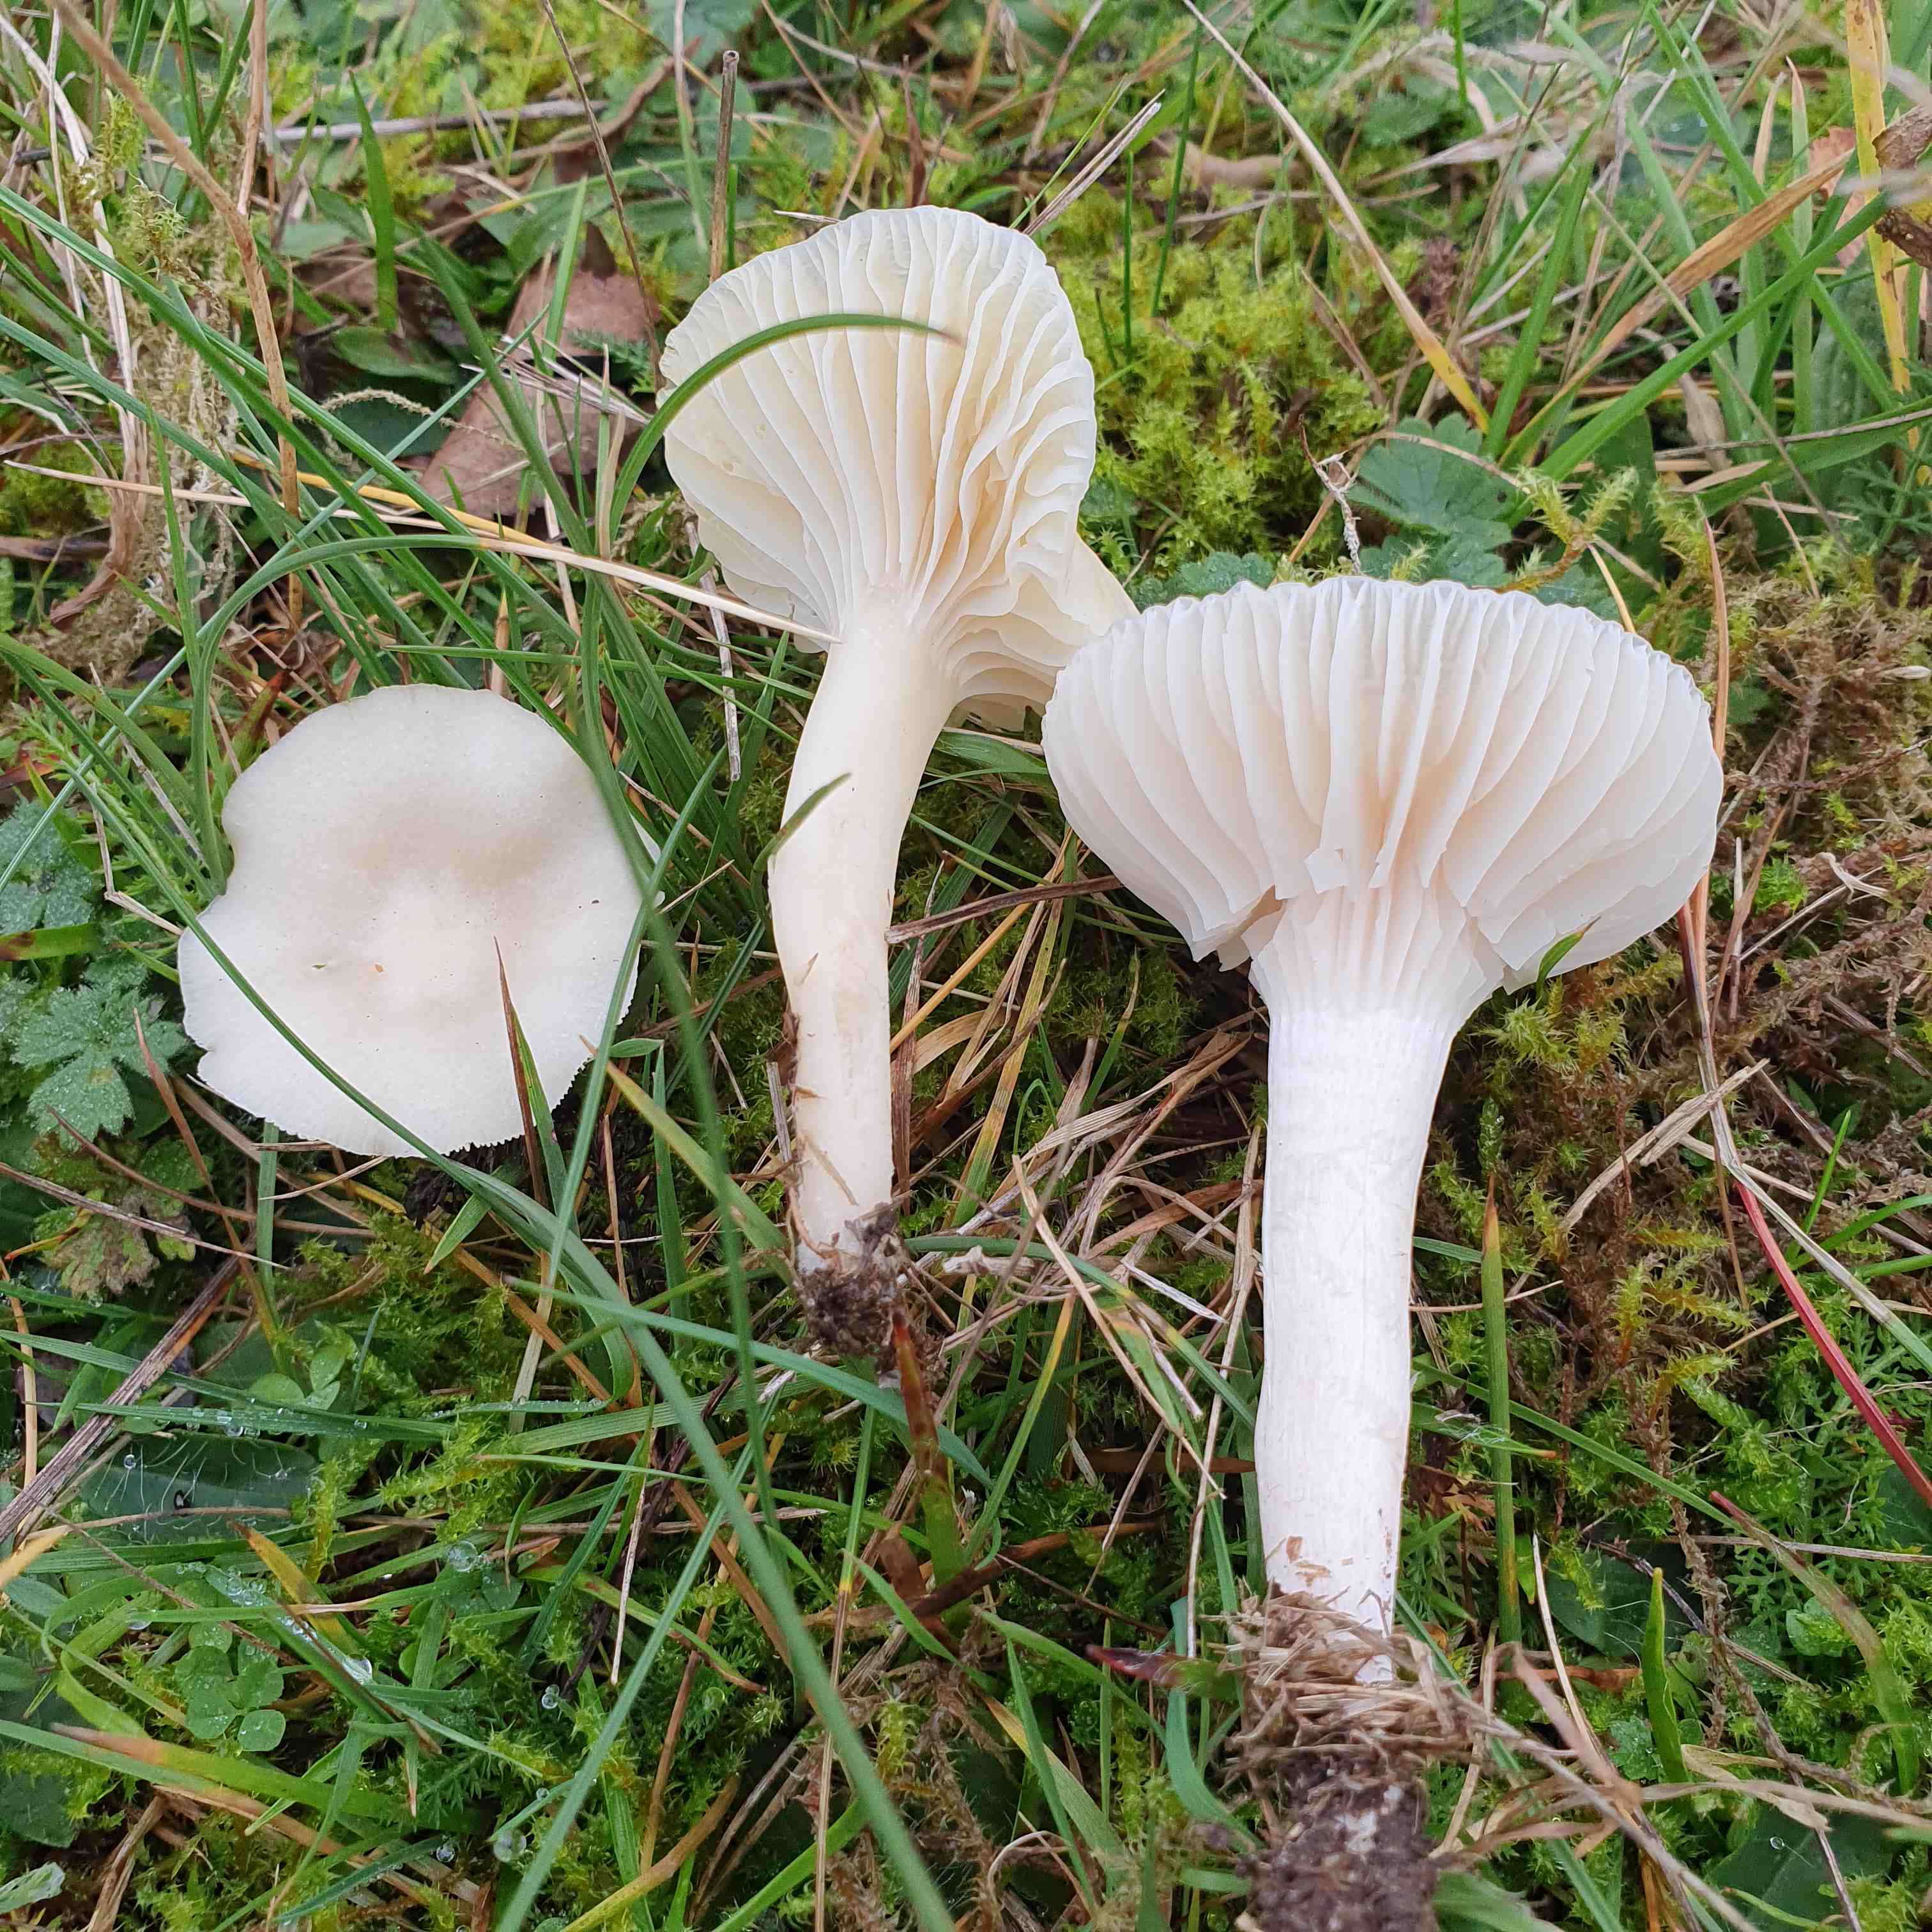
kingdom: Fungi
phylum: Basidiomycota
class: Agaricomycetes
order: Agaricales
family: Hygrophoraceae
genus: Cuphophyllus
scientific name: Cuphophyllus virgineus
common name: snehvid vokshat
